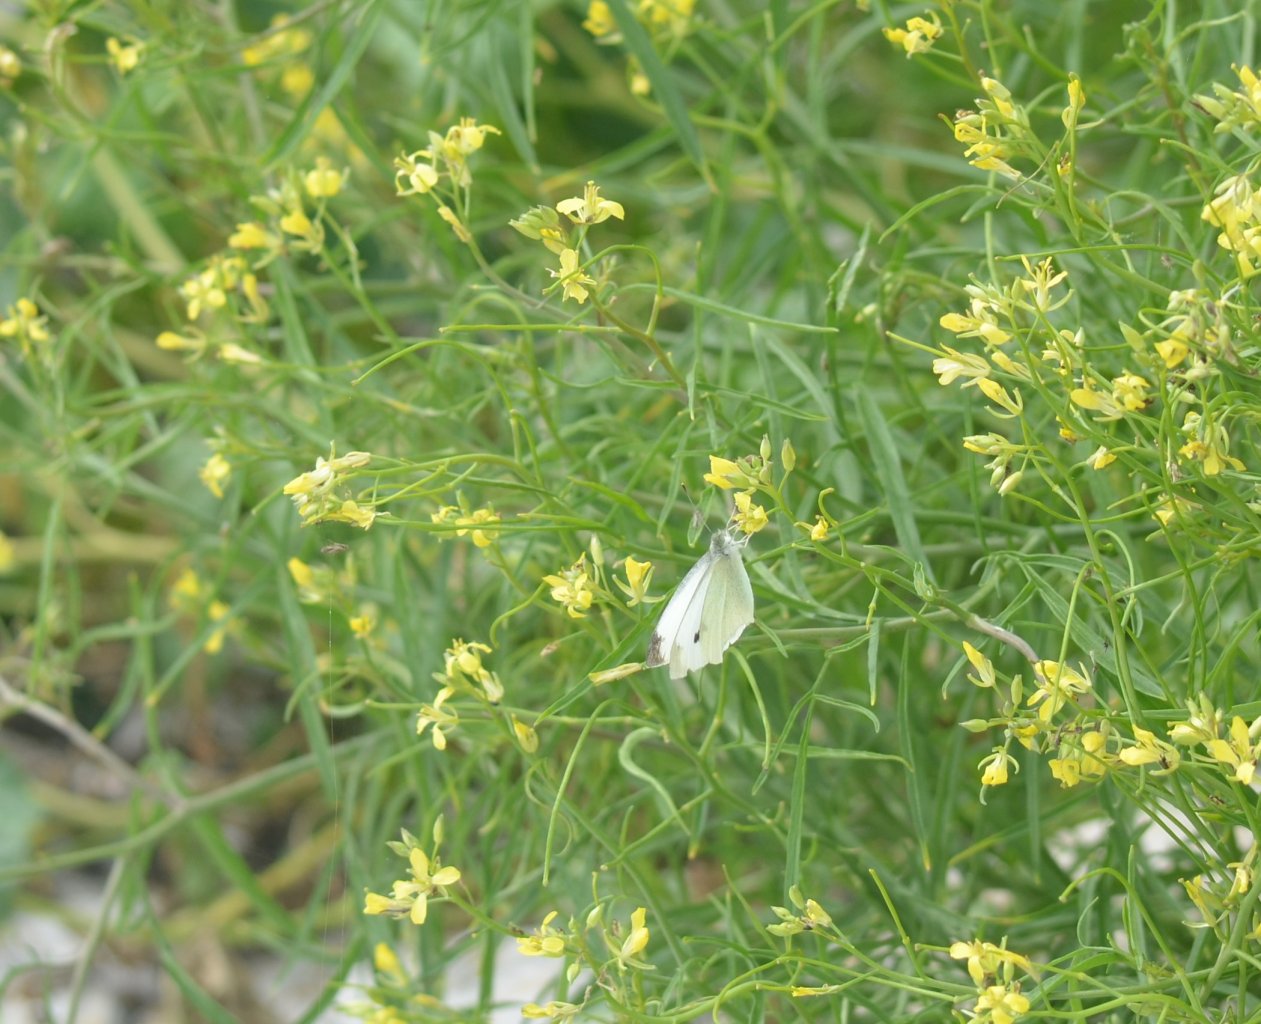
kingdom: Animalia
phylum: Arthropoda
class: Insecta
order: Lepidoptera
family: Pieridae
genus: Pieris
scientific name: Pieris rapae
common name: Cabbage White
